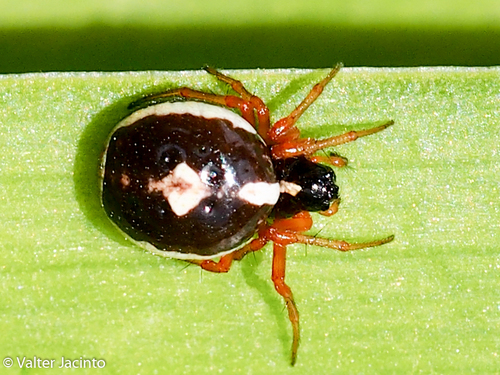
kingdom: Animalia
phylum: Arthropoda
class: Arachnida
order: Araneae
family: Araneidae
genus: Hypsosinga
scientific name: Hypsosinga albovittata
